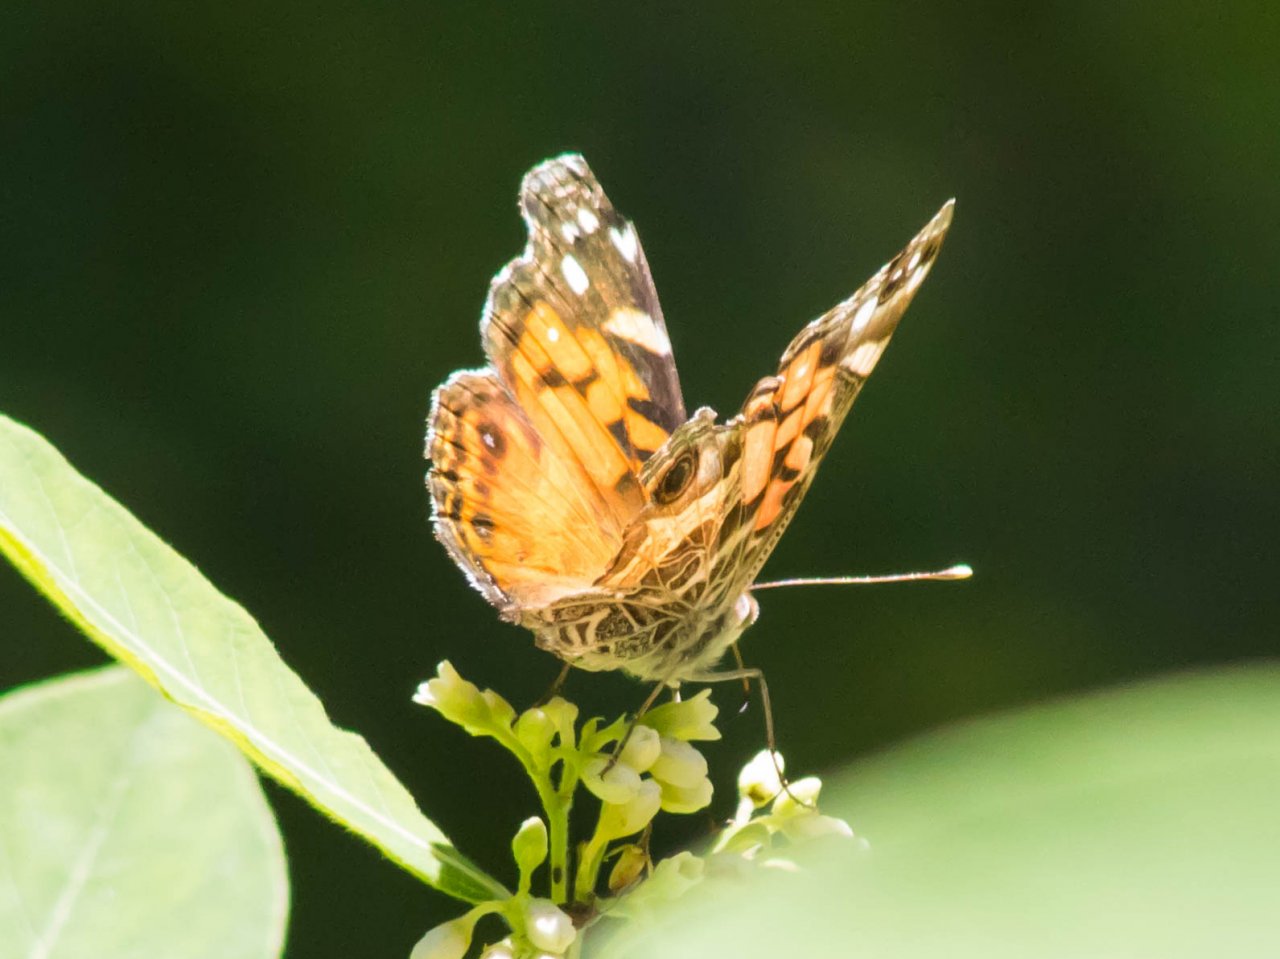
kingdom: Animalia
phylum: Arthropoda
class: Insecta
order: Lepidoptera
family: Nymphalidae
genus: Vanessa
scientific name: Vanessa virginiensis
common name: American Lady
